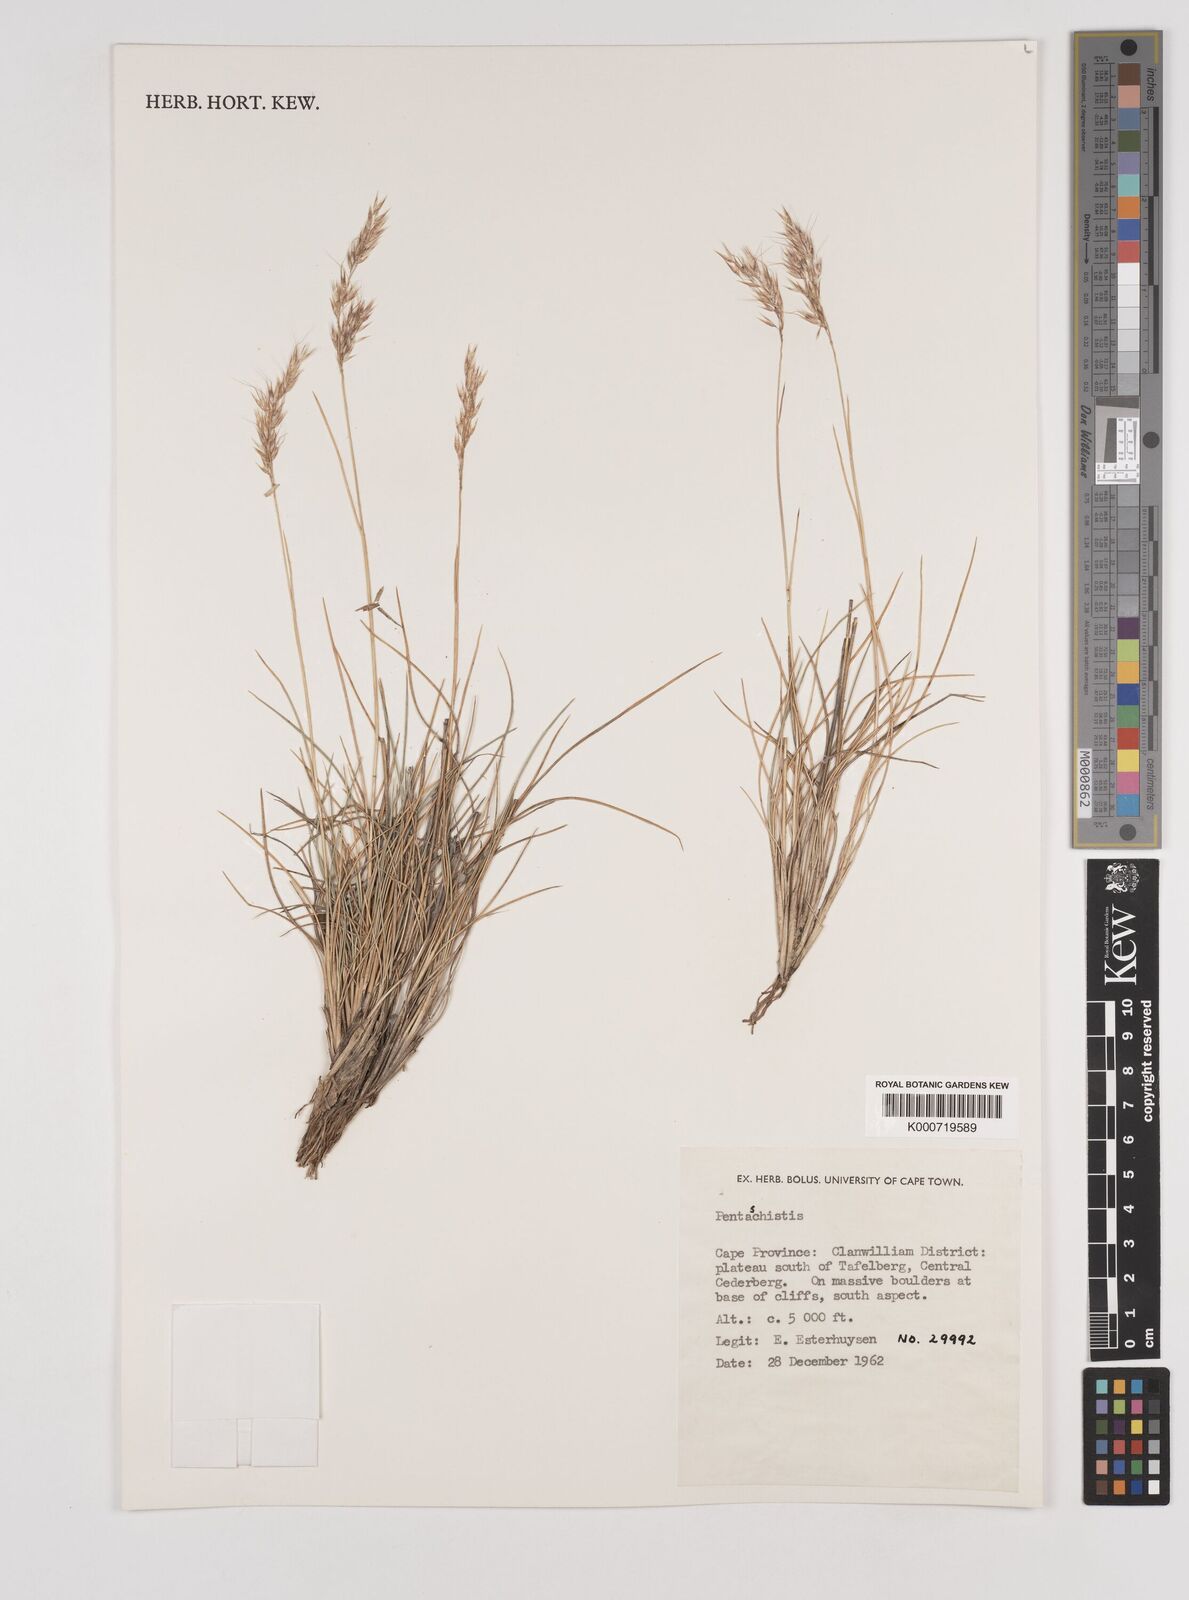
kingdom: Plantae
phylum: Tracheophyta
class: Liliopsida
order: Poales
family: Poaceae
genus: Pentameris
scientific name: Pentameris rigidissima
